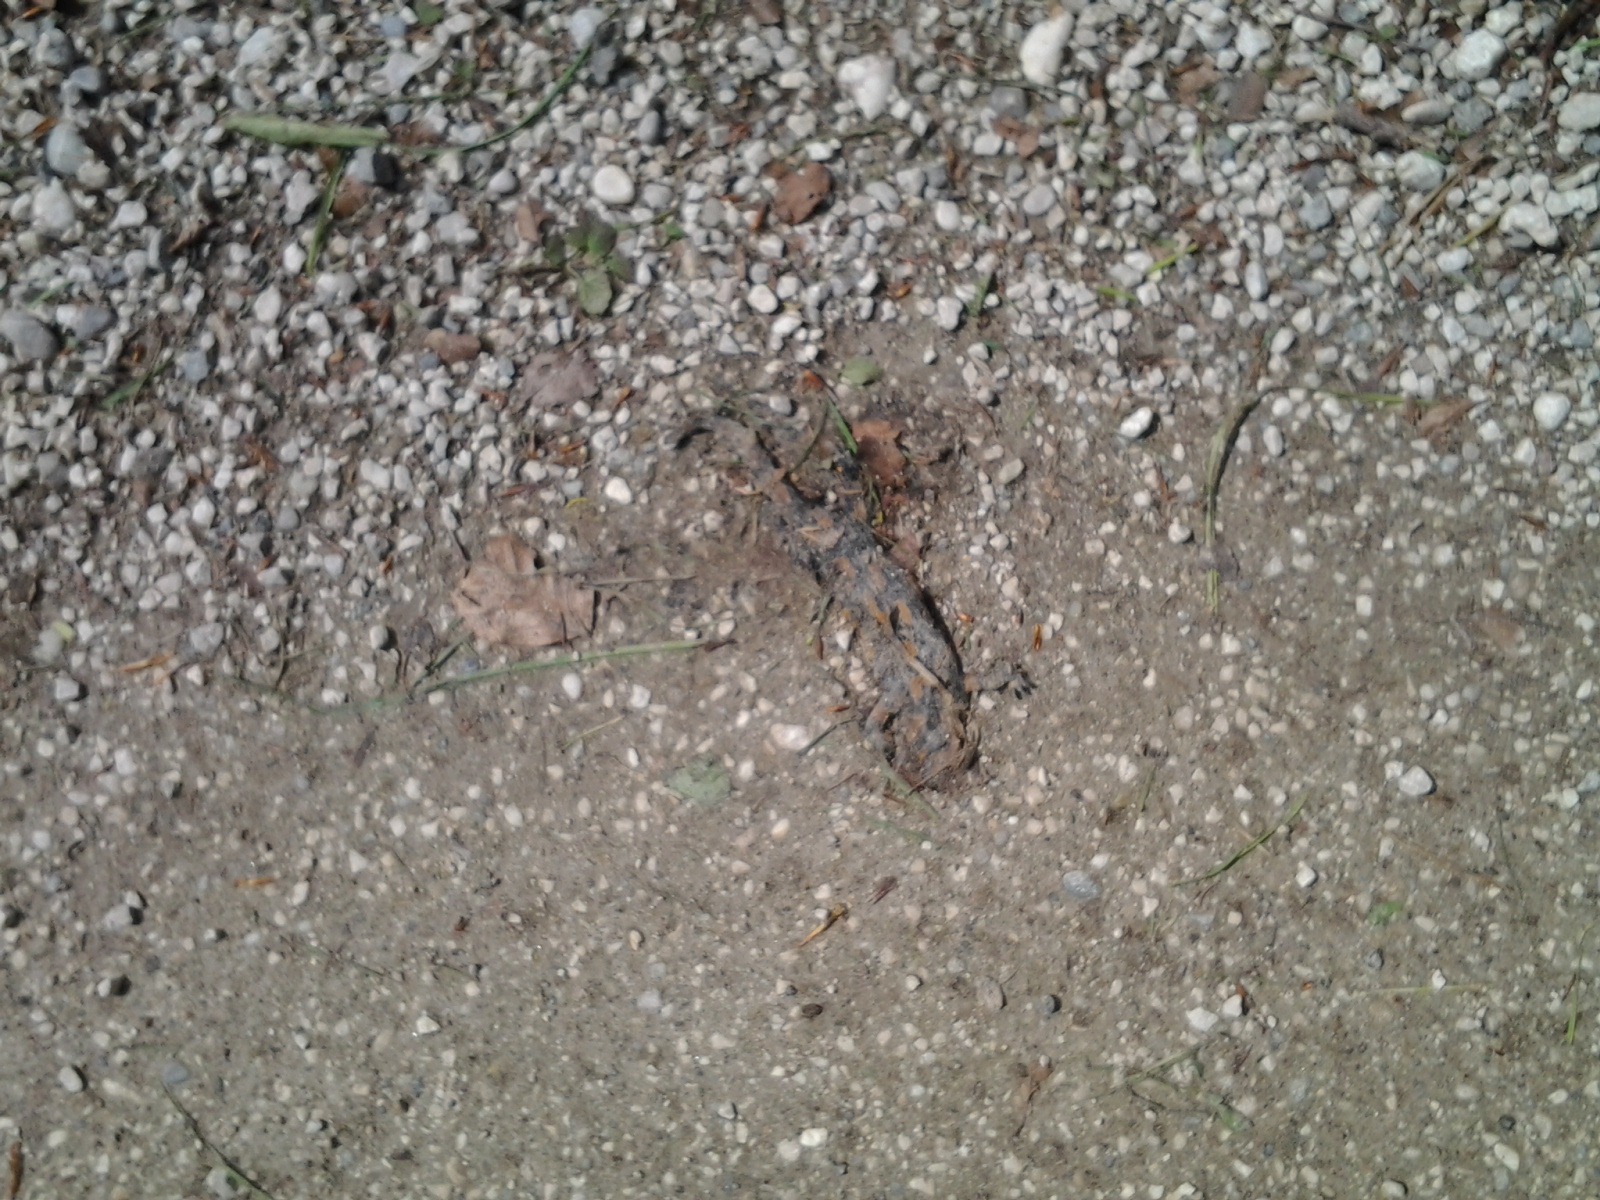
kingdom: Animalia
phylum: Chordata
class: Amphibia
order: Caudata
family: Salamandridae
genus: Salamandra
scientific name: Salamandra salamandra
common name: Fire salamander
